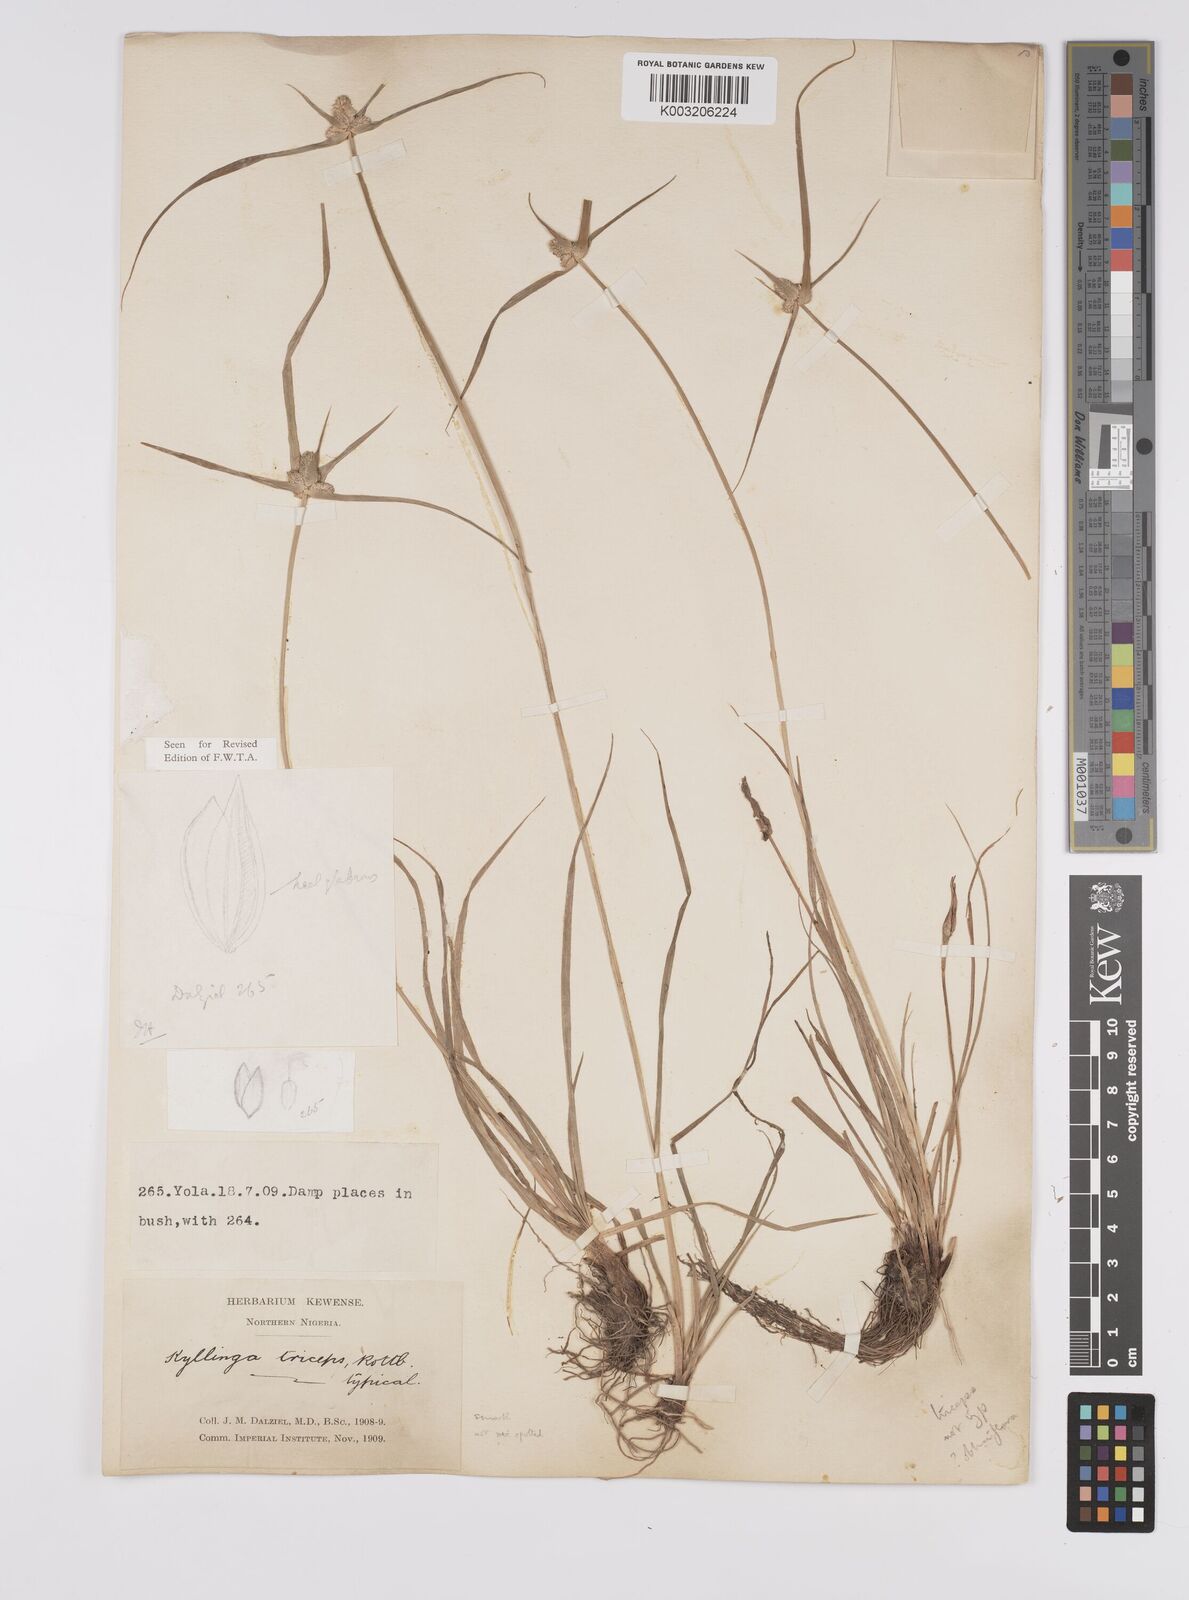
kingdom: Plantae
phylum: Tracheophyta
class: Liliopsida
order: Poales
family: Cyperaceae
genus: Cyperus
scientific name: Cyperus
